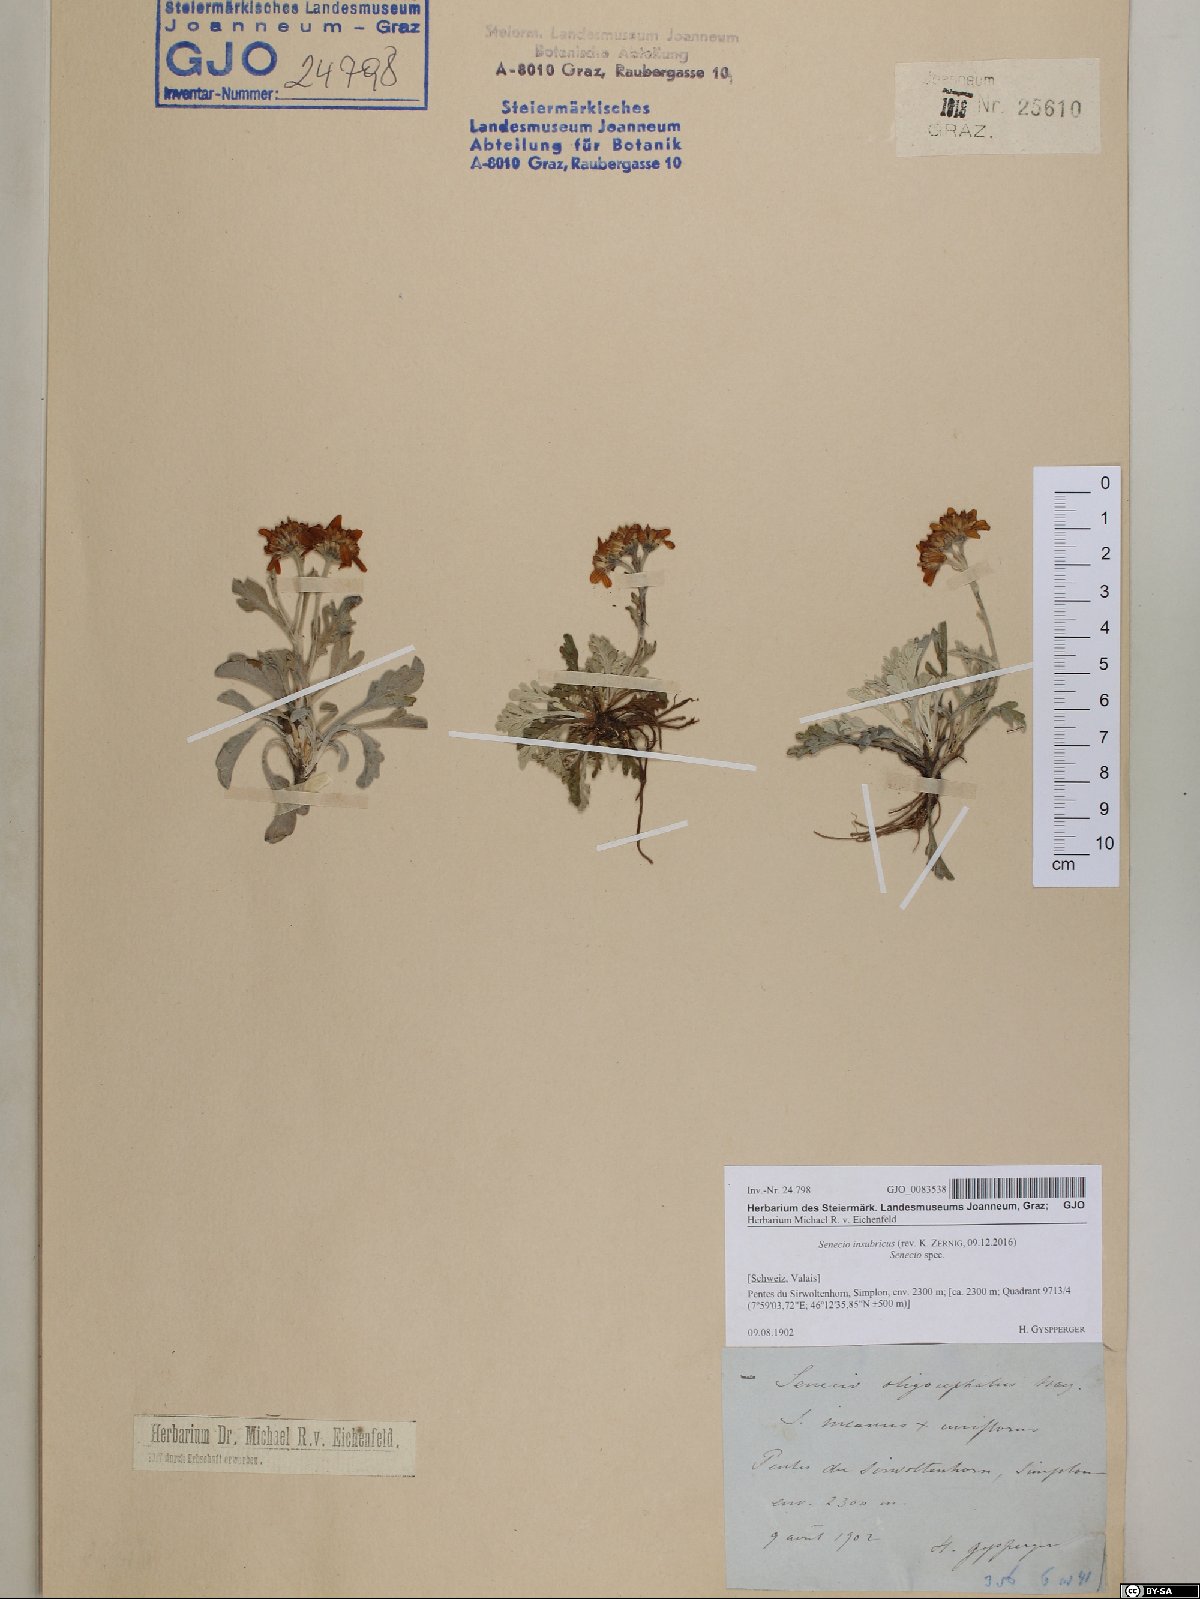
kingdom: Plantae
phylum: Tracheophyta
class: Magnoliopsida
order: Asterales
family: Asteraceae
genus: Jacobaea
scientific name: Jacobaea insubrica
